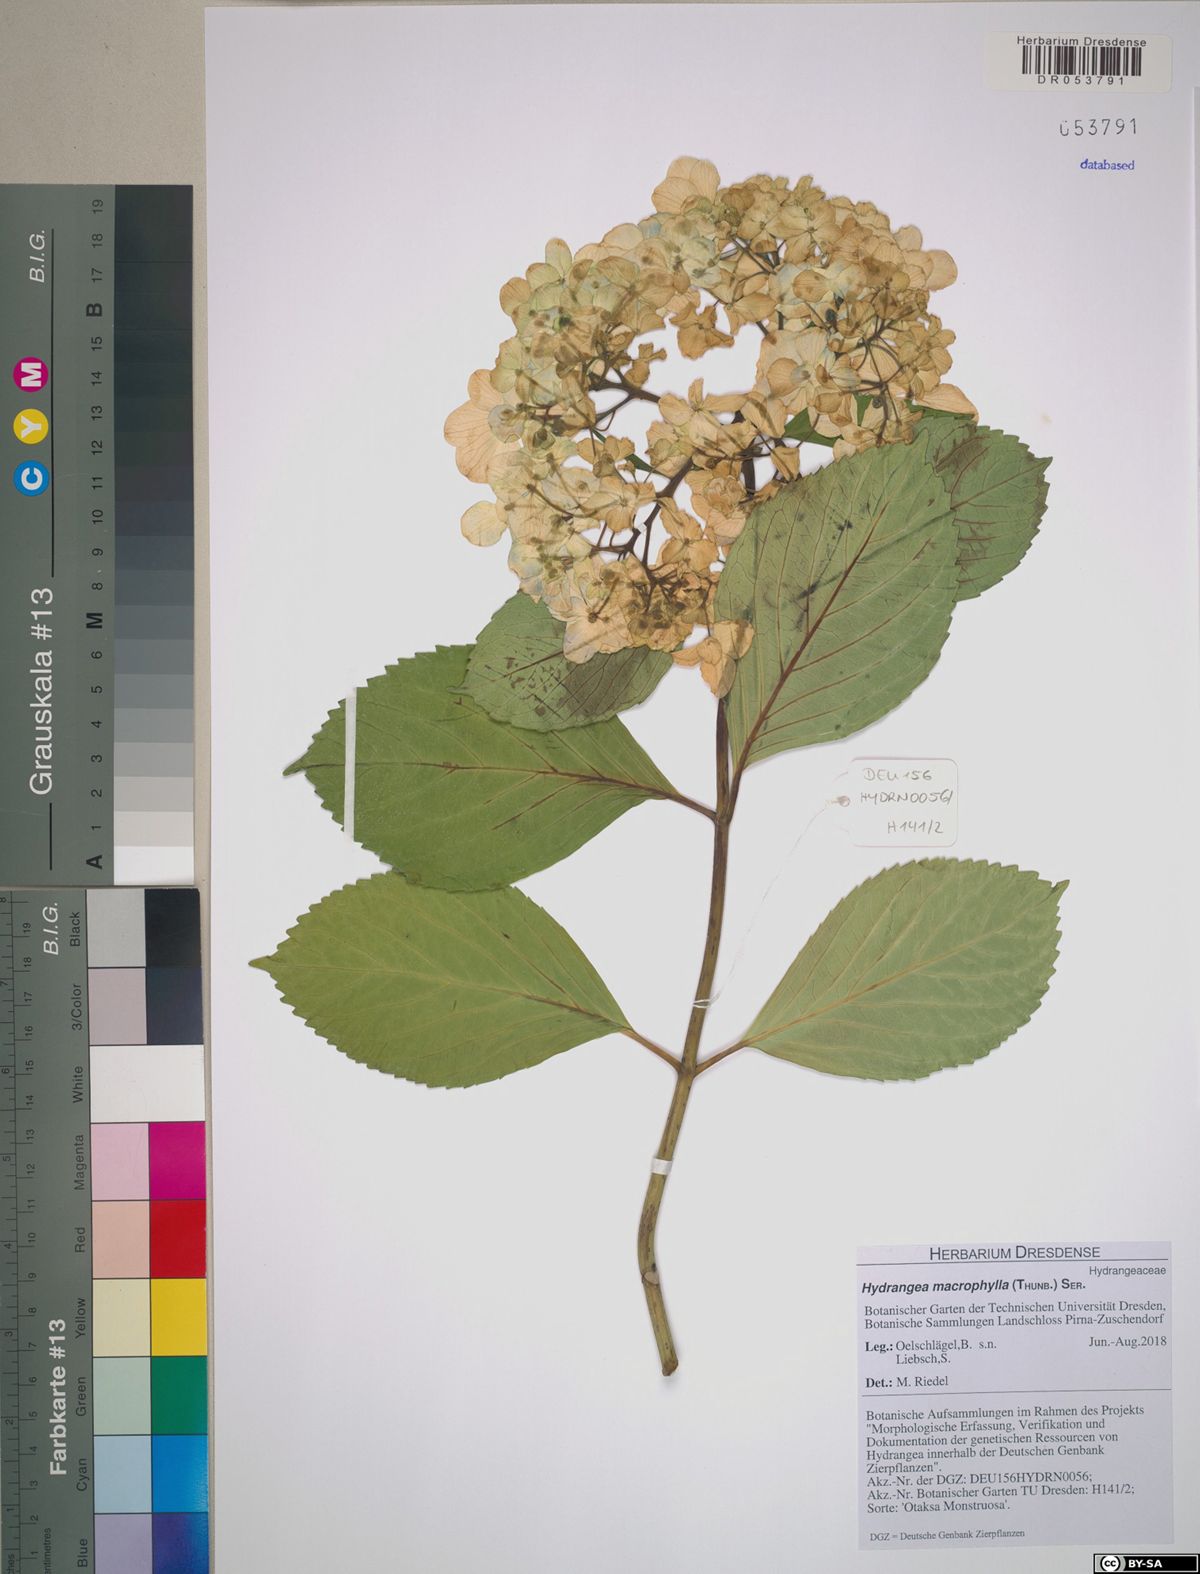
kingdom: Plantae
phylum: Tracheophyta
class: Magnoliopsida
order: Cornales
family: Hydrangeaceae
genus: Hydrangea
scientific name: Hydrangea macrophylla
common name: Hydrangea
